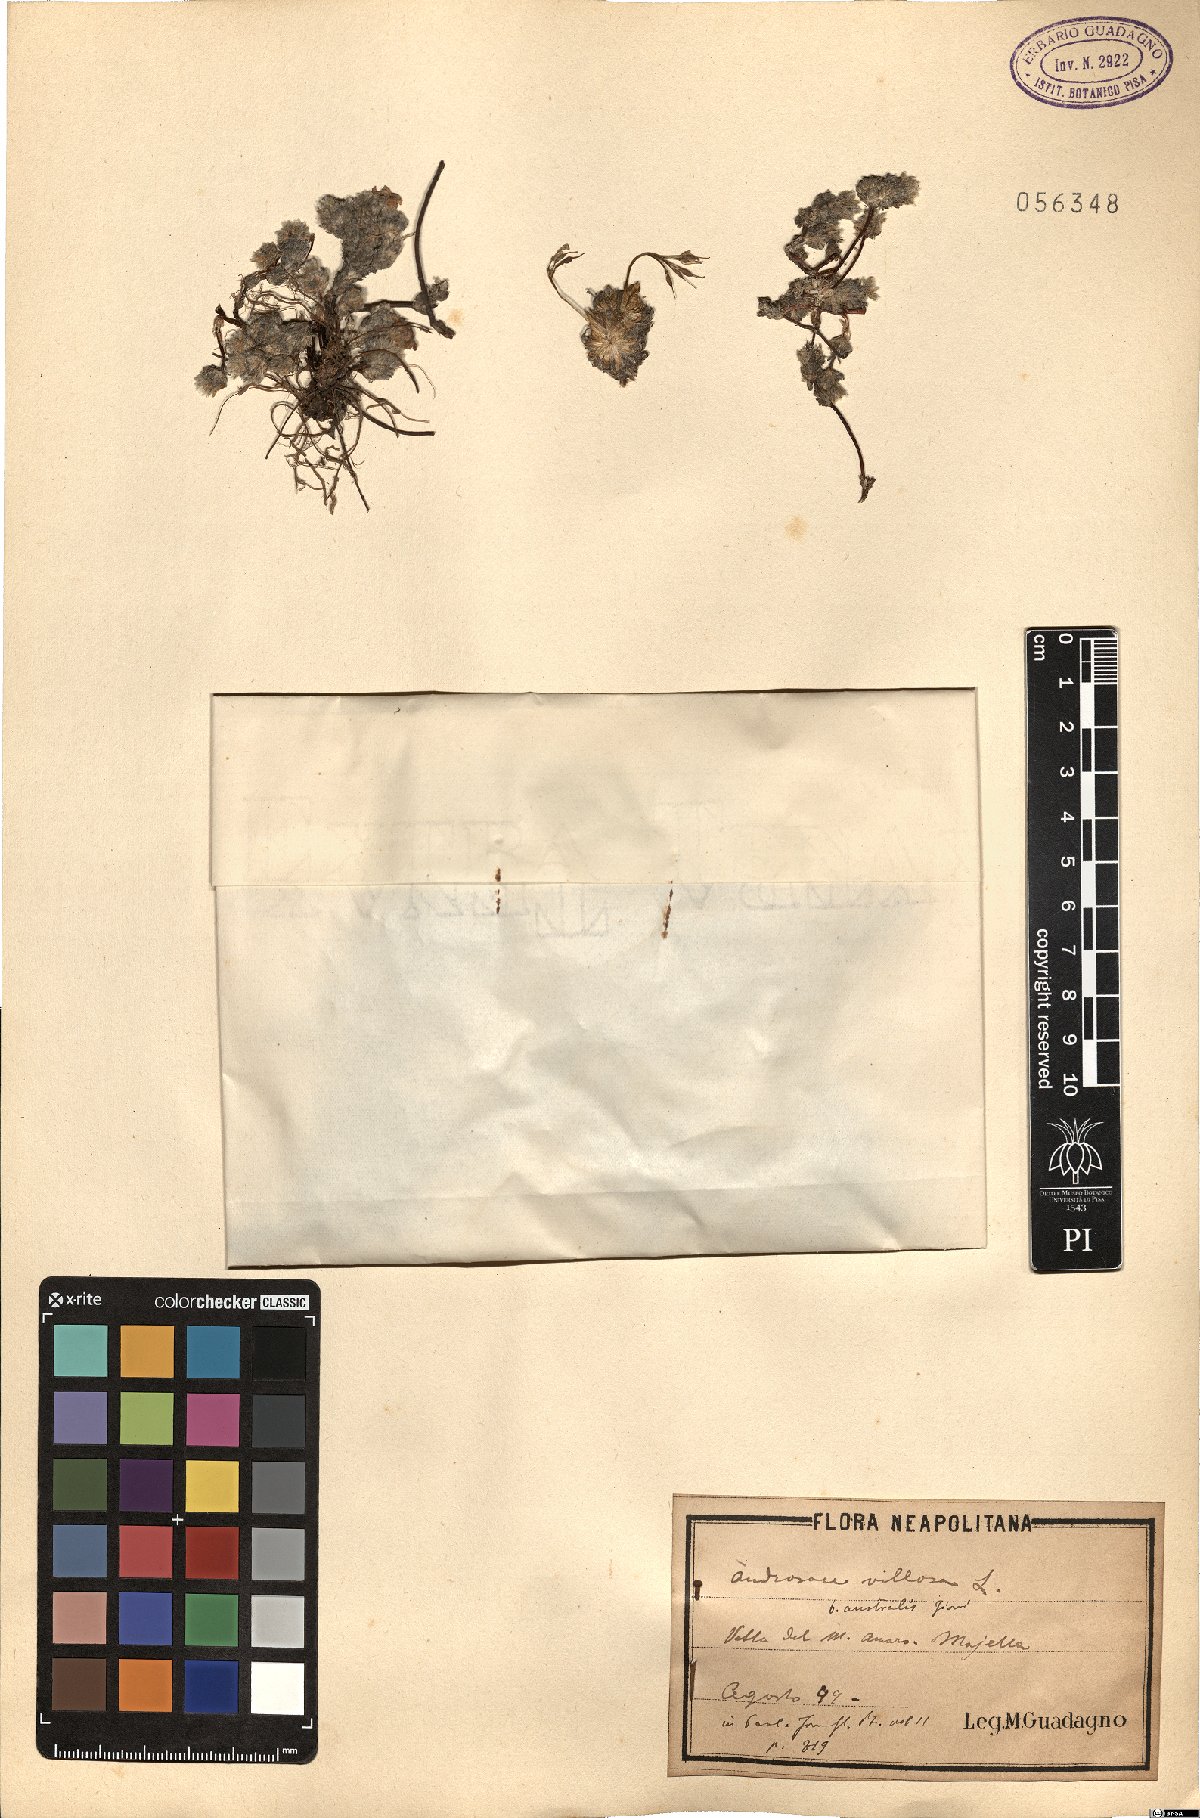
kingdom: Plantae
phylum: Tracheophyta
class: Magnoliopsida
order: Ericales
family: Primulaceae
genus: Androsace
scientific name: Androsace villosa
